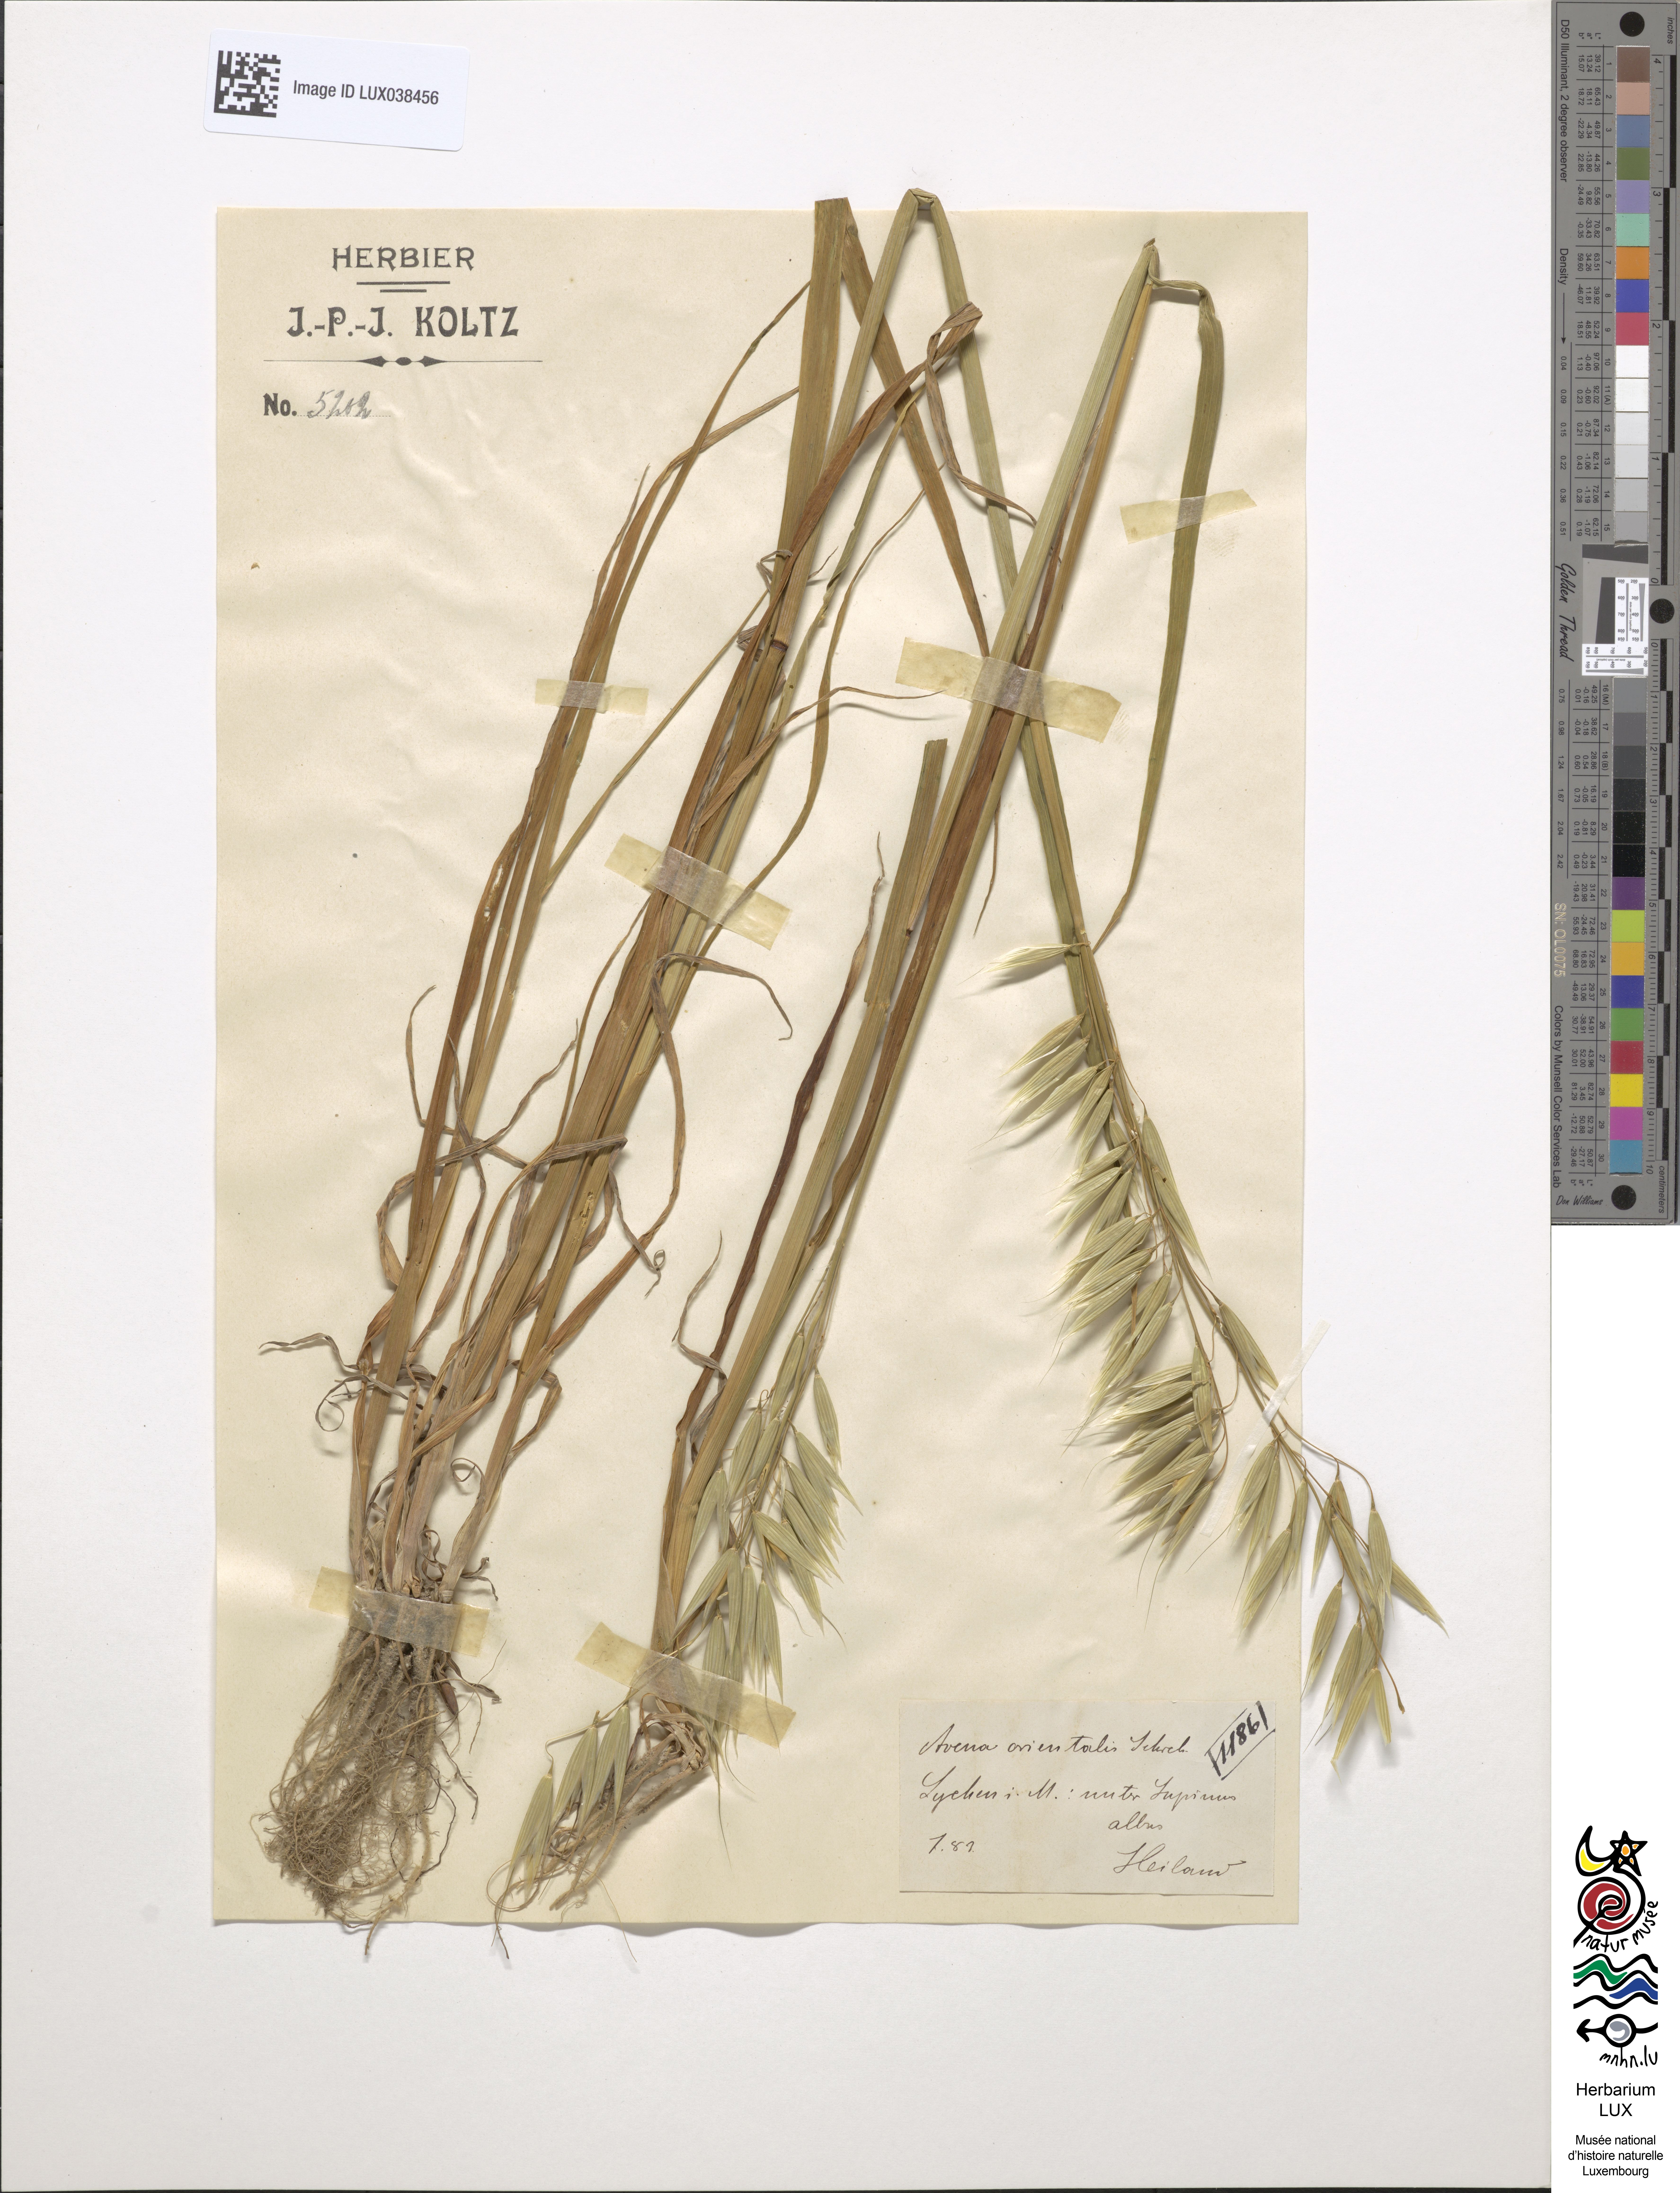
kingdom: Plantae
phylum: Tracheophyta
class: Liliopsida
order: Poales
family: Poaceae
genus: Avena
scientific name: Avena sativa
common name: Oat
